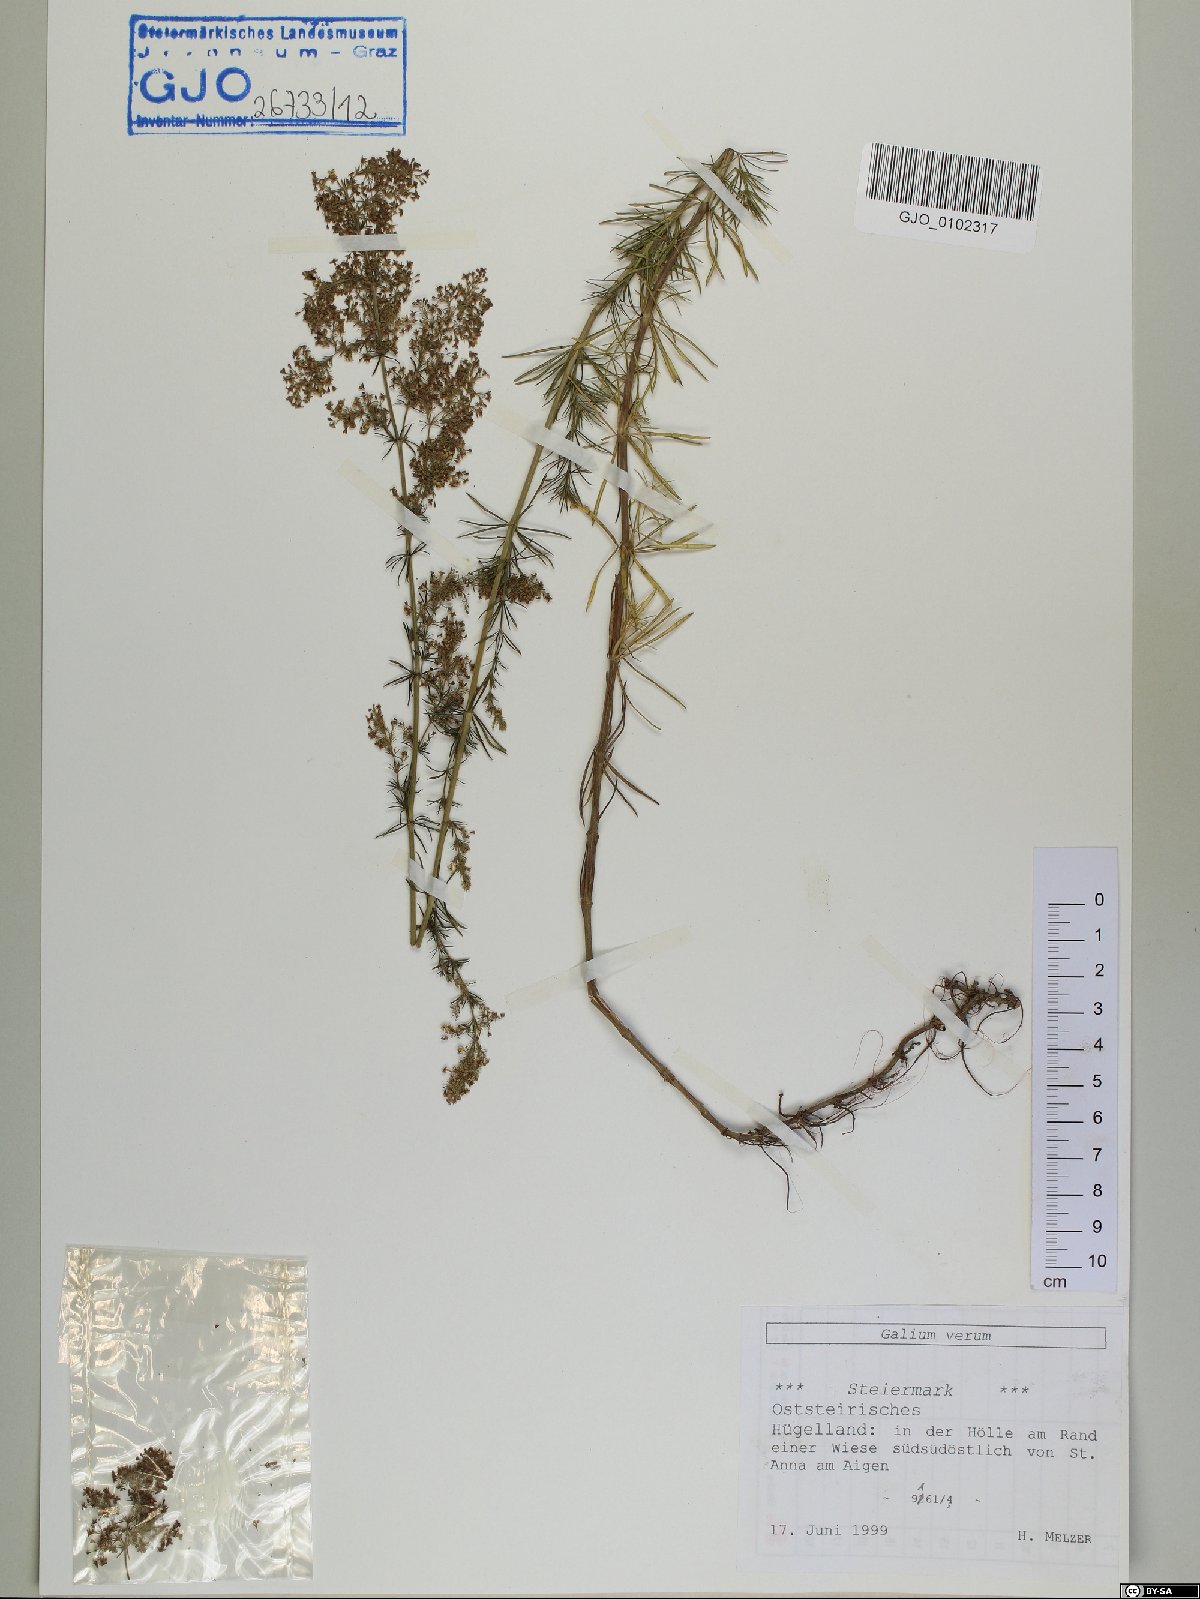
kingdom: Plantae
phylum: Tracheophyta
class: Magnoliopsida
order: Gentianales
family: Rubiaceae
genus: Galium
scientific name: Galium verum
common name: Lady's bedstraw
